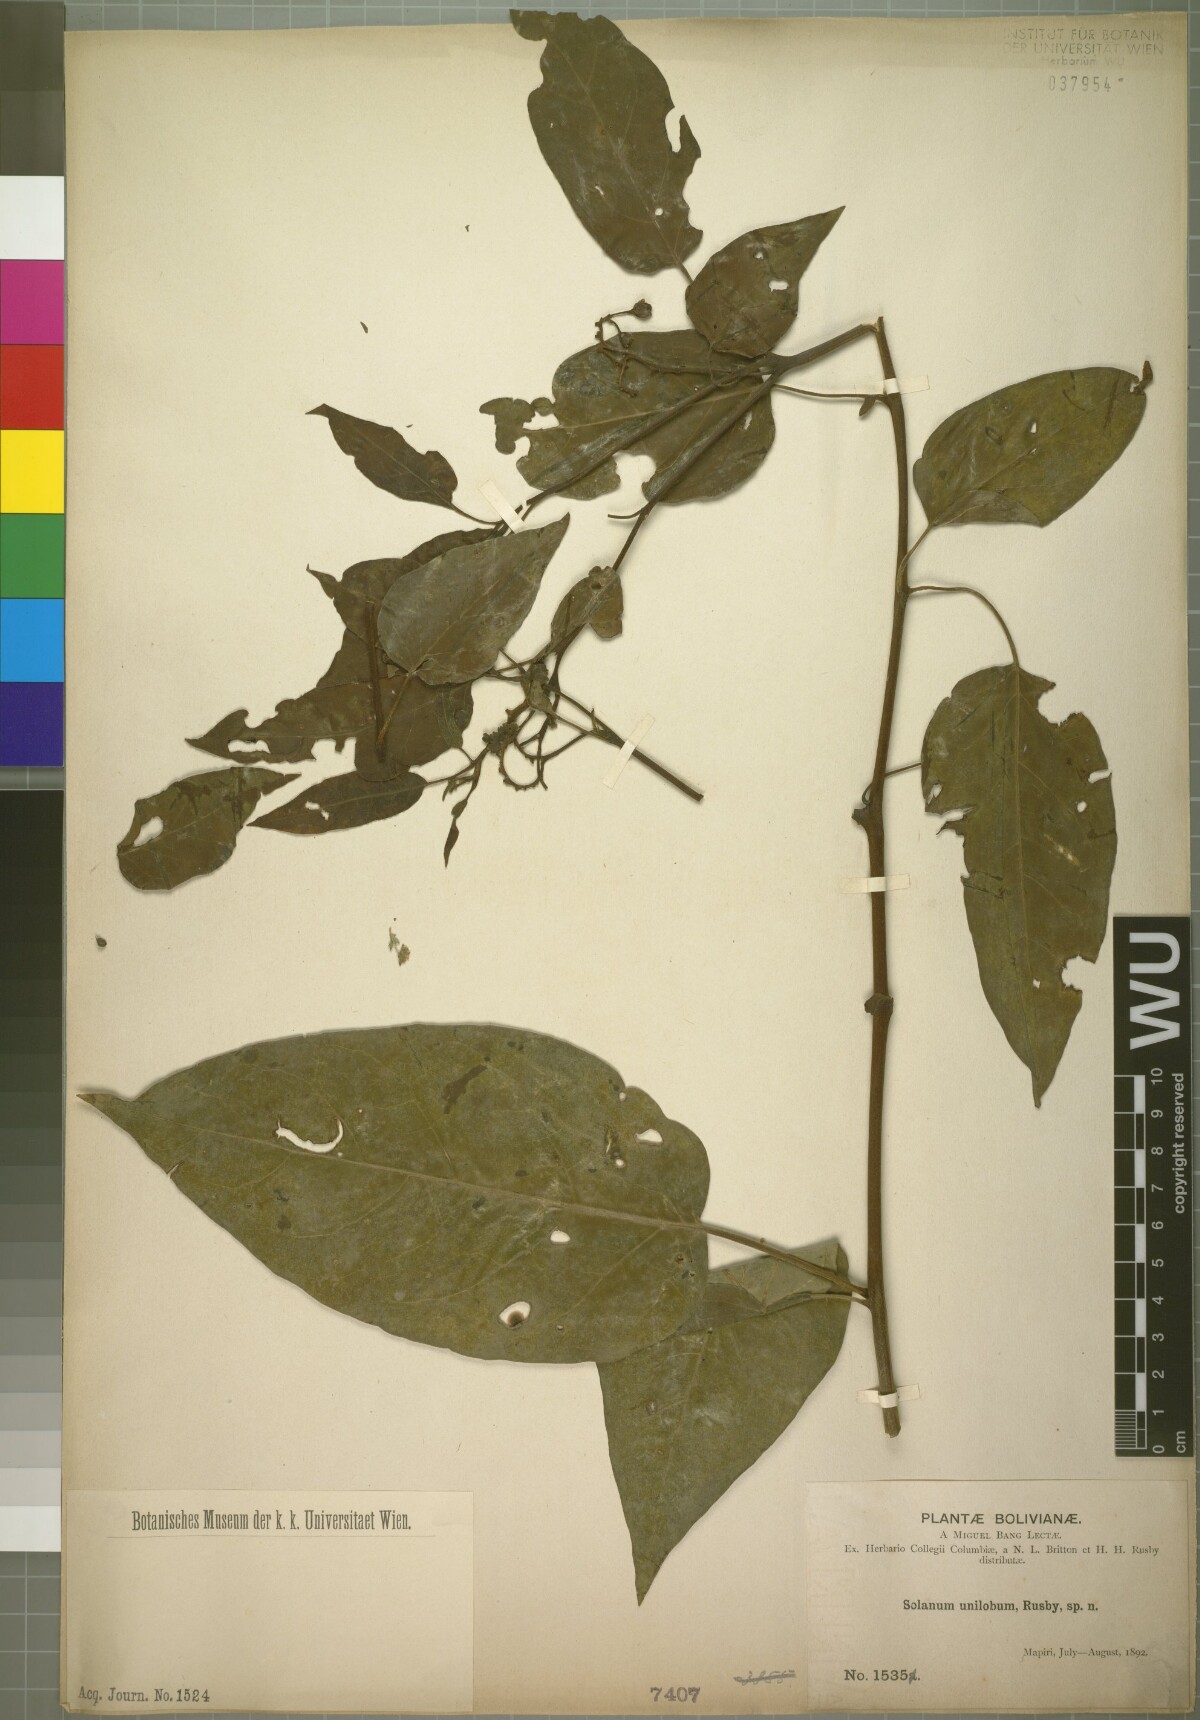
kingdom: Plantae
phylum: Tracheophyta
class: Magnoliopsida
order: Solanales
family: Solanaceae
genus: Solanum
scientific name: Solanum unilobum
